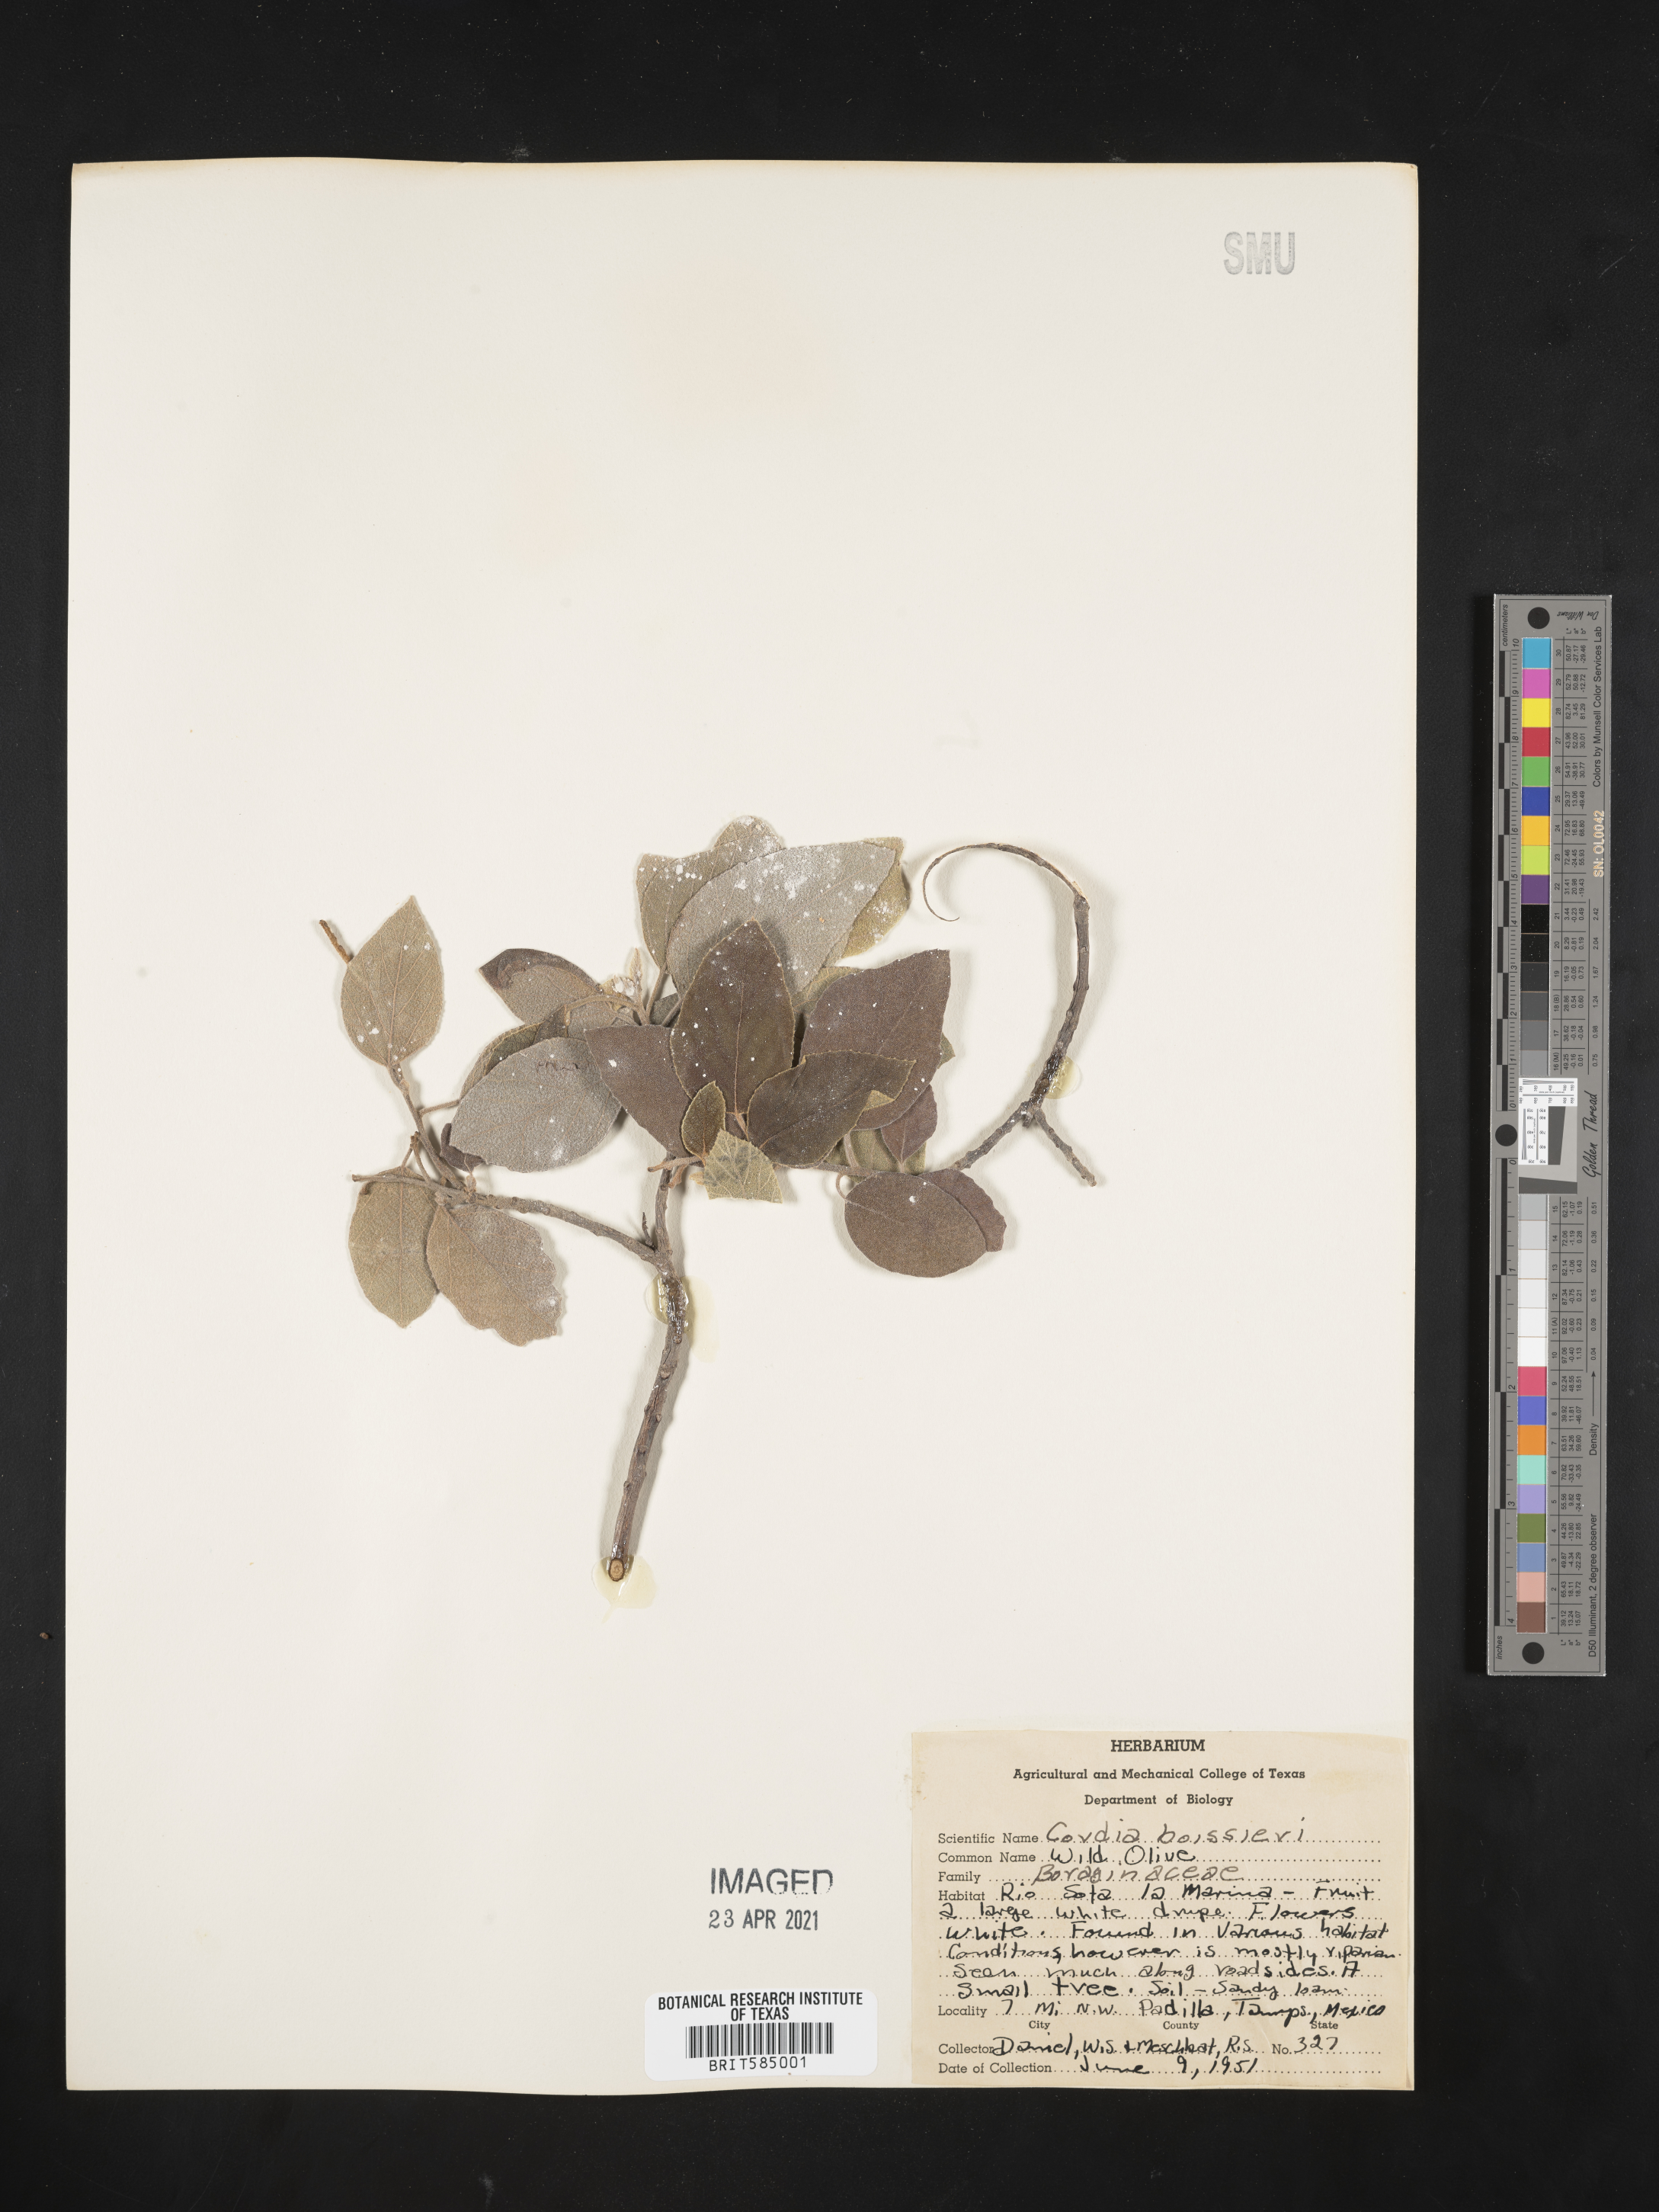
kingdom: Plantae
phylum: Tracheophyta
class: Magnoliopsida
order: Boraginales
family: Cordiaceae
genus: Cordia
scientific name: Cordia boissieri
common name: Mexican-olive
